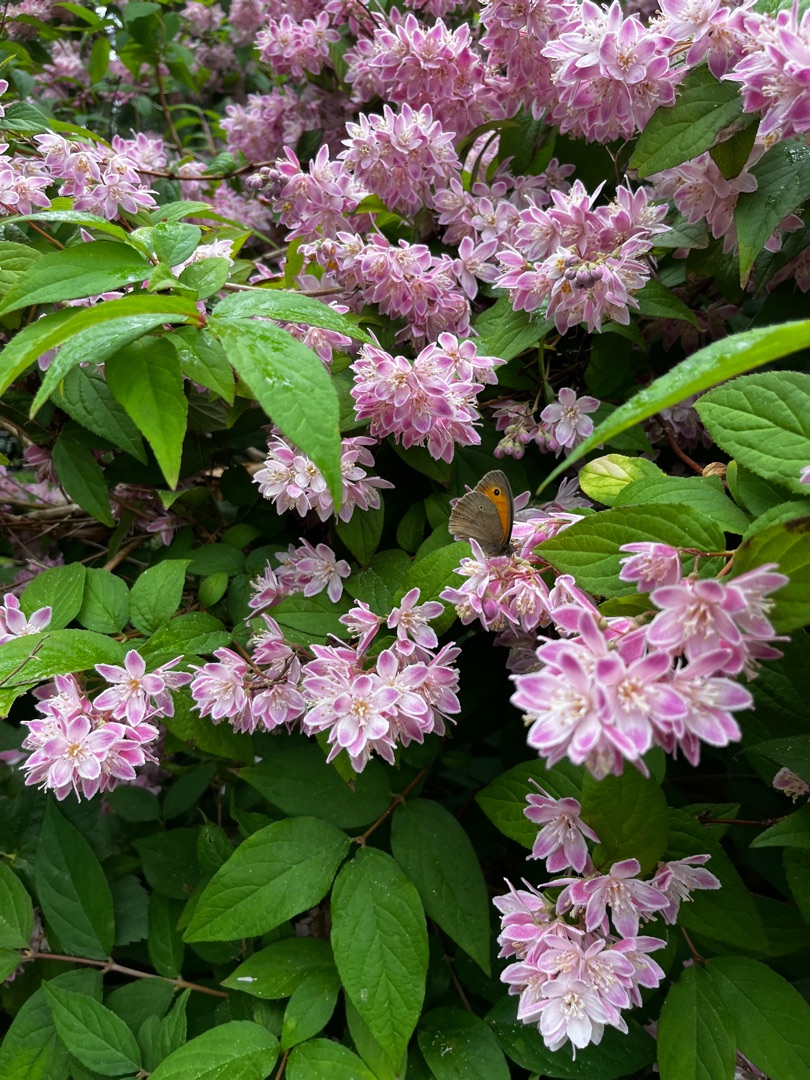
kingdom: Animalia
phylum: Arthropoda
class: Insecta
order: Lepidoptera
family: Nymphalidae
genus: Maniola
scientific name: Maniola jurtina
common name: Græsrandøje
